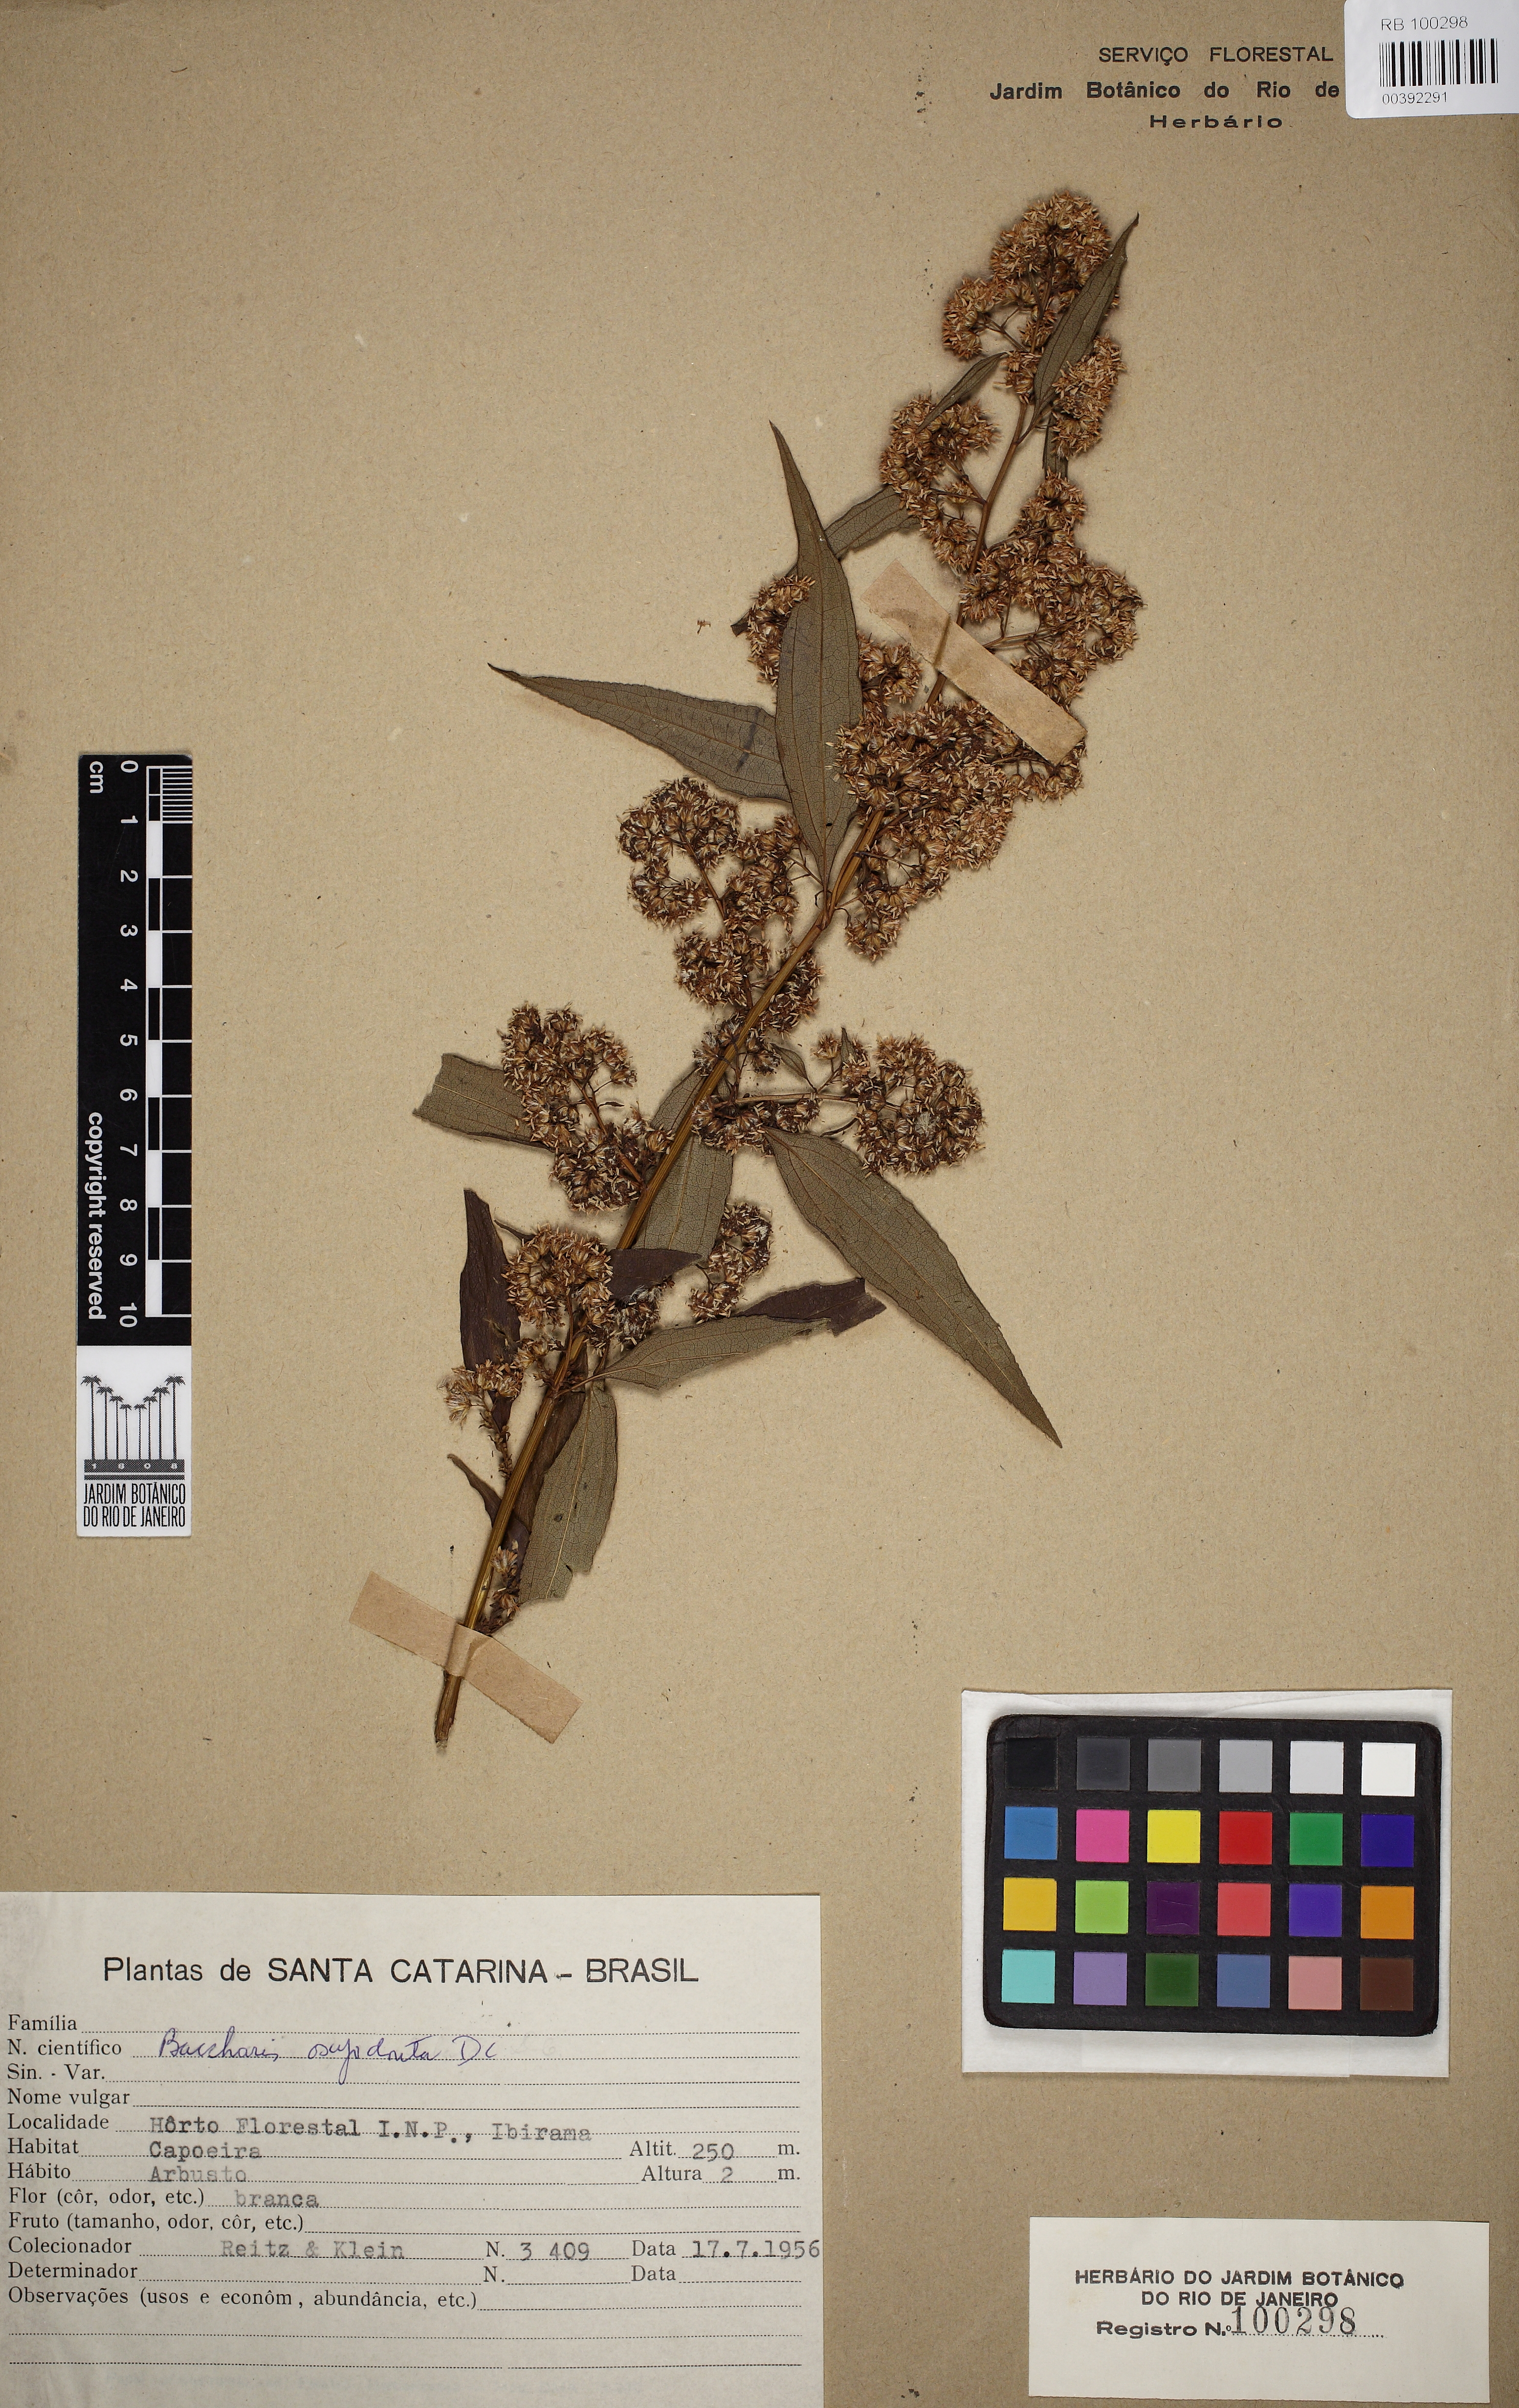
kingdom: Plantae
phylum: Tracheophyta
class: Magnoliopsida
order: Asterales
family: Asteraceae
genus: Baccharis
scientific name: Baccharis oxyodonta
